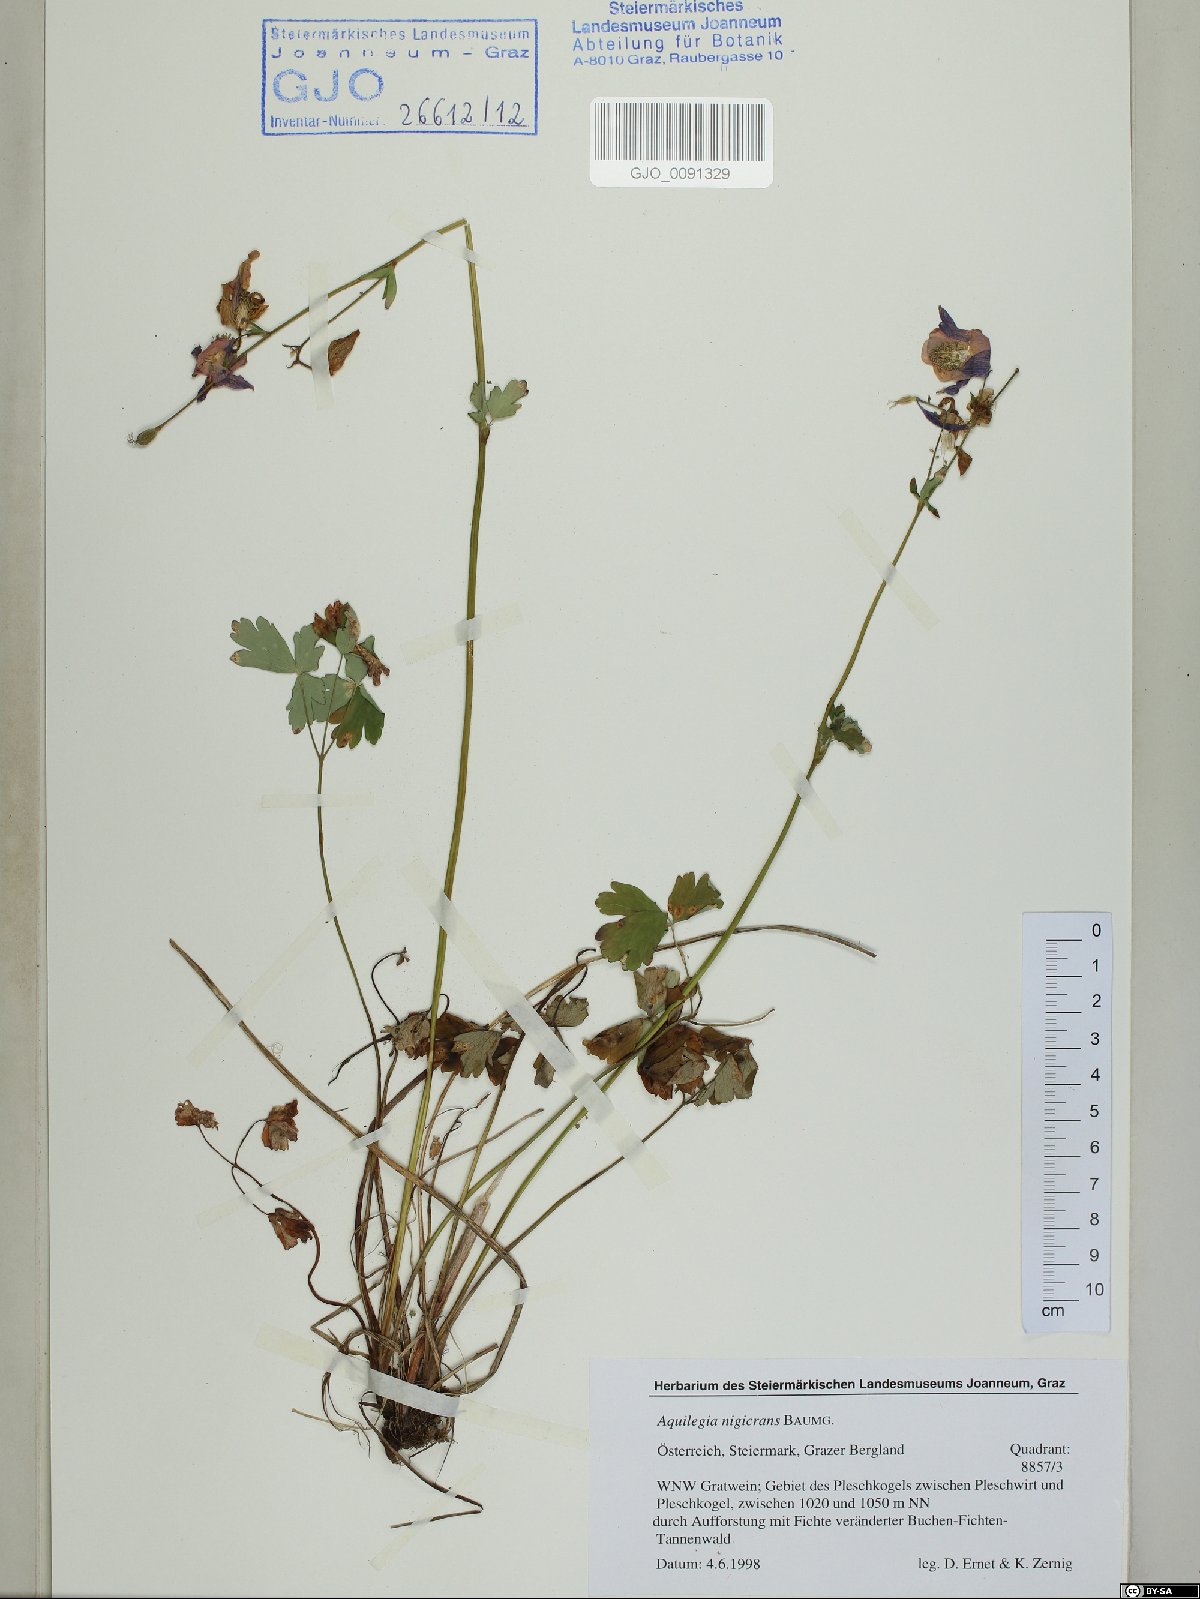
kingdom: Plantae
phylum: Tracheophyta
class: Magnoliopsida
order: Ranunculales
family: Ranunculaceae
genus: Aquilegia
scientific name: Aquilegia nigricans
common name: Bulgarian columbine
